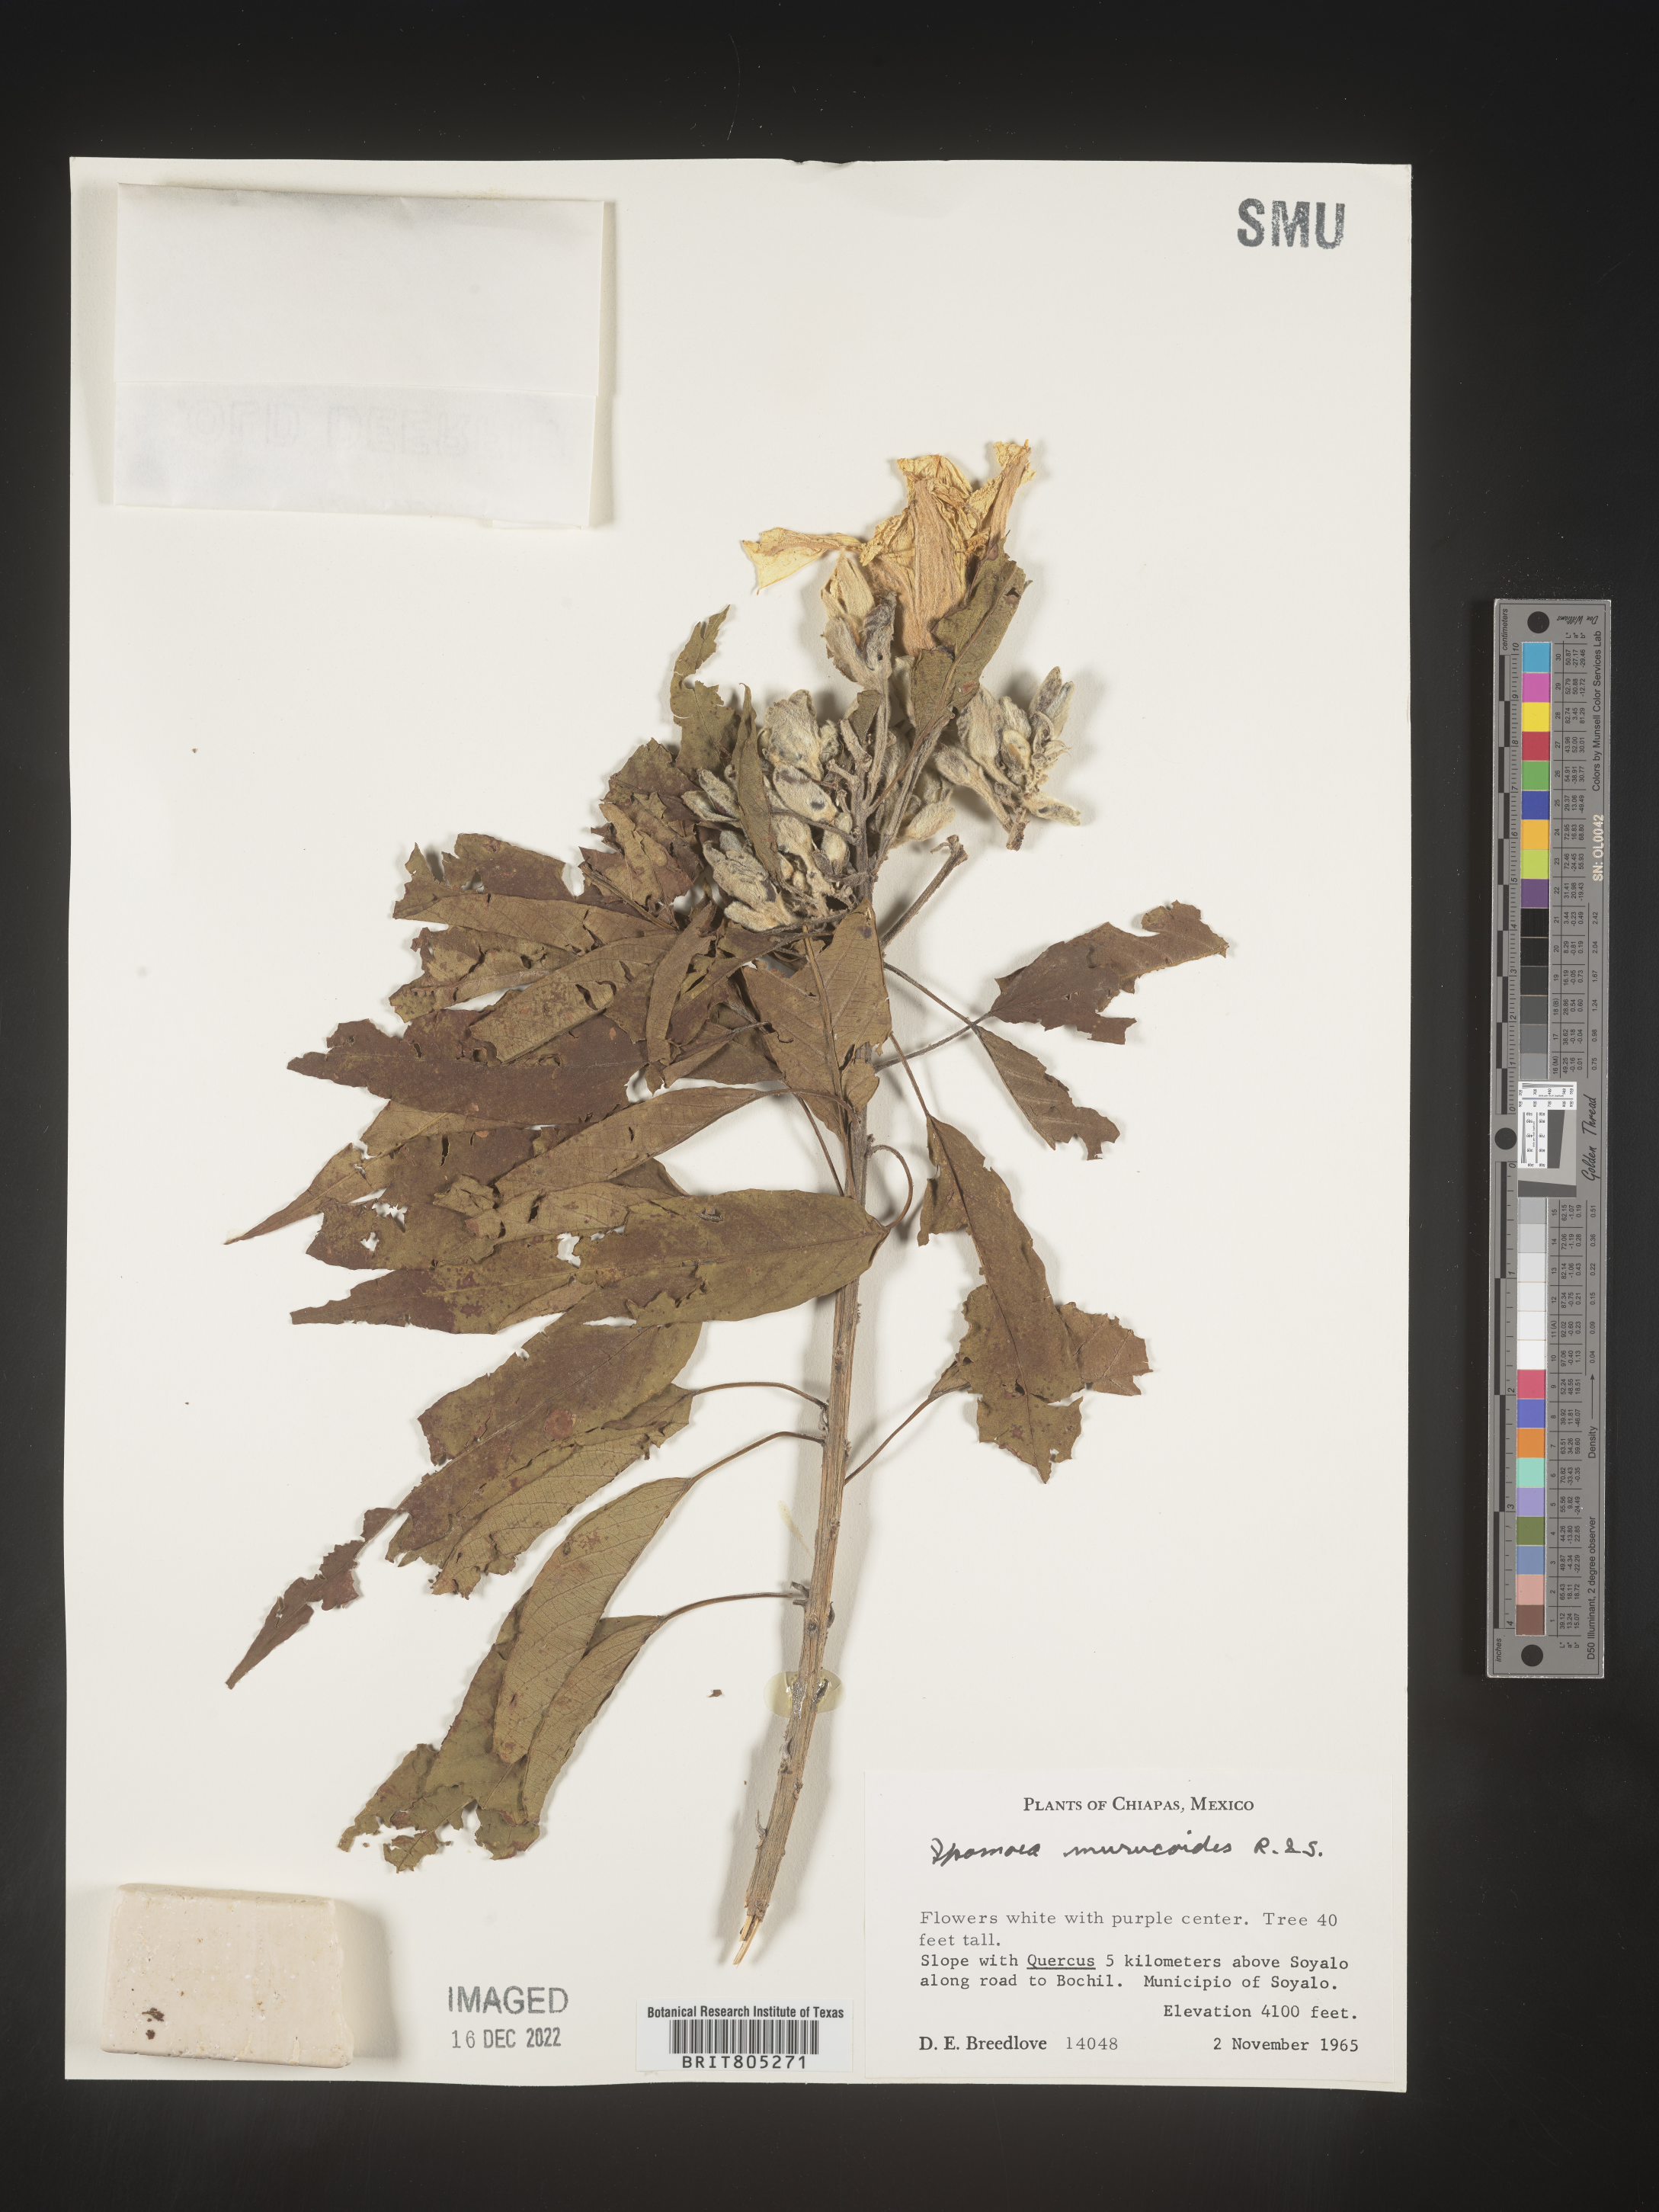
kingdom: Plantae
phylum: Tracheophyta
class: Magnoliopsida
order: Solanales
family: Convolvulaceae
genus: Ipomoea
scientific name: Ipomoea
